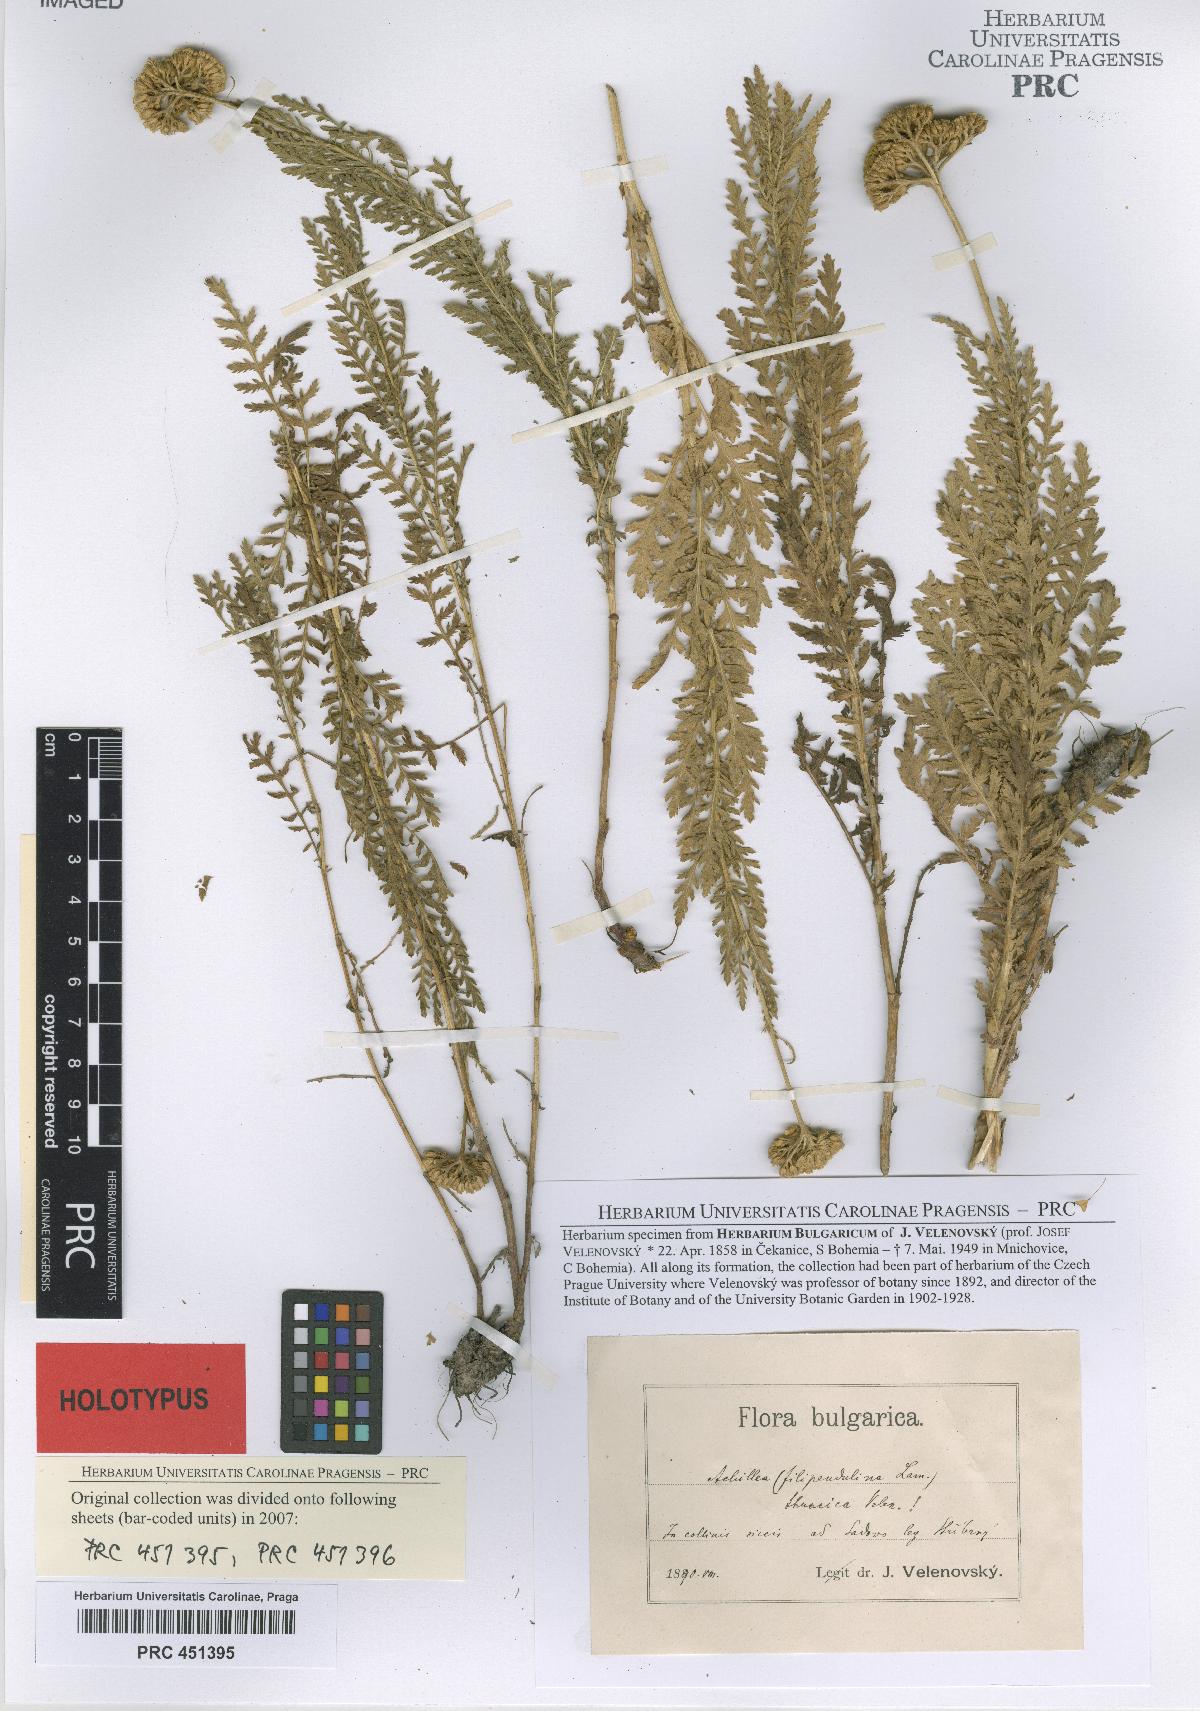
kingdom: Plantae
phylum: Tracheophyta
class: Magnoliopsida
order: Asterales
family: Asteraceae
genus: Achillea
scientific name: Achillea thracica
